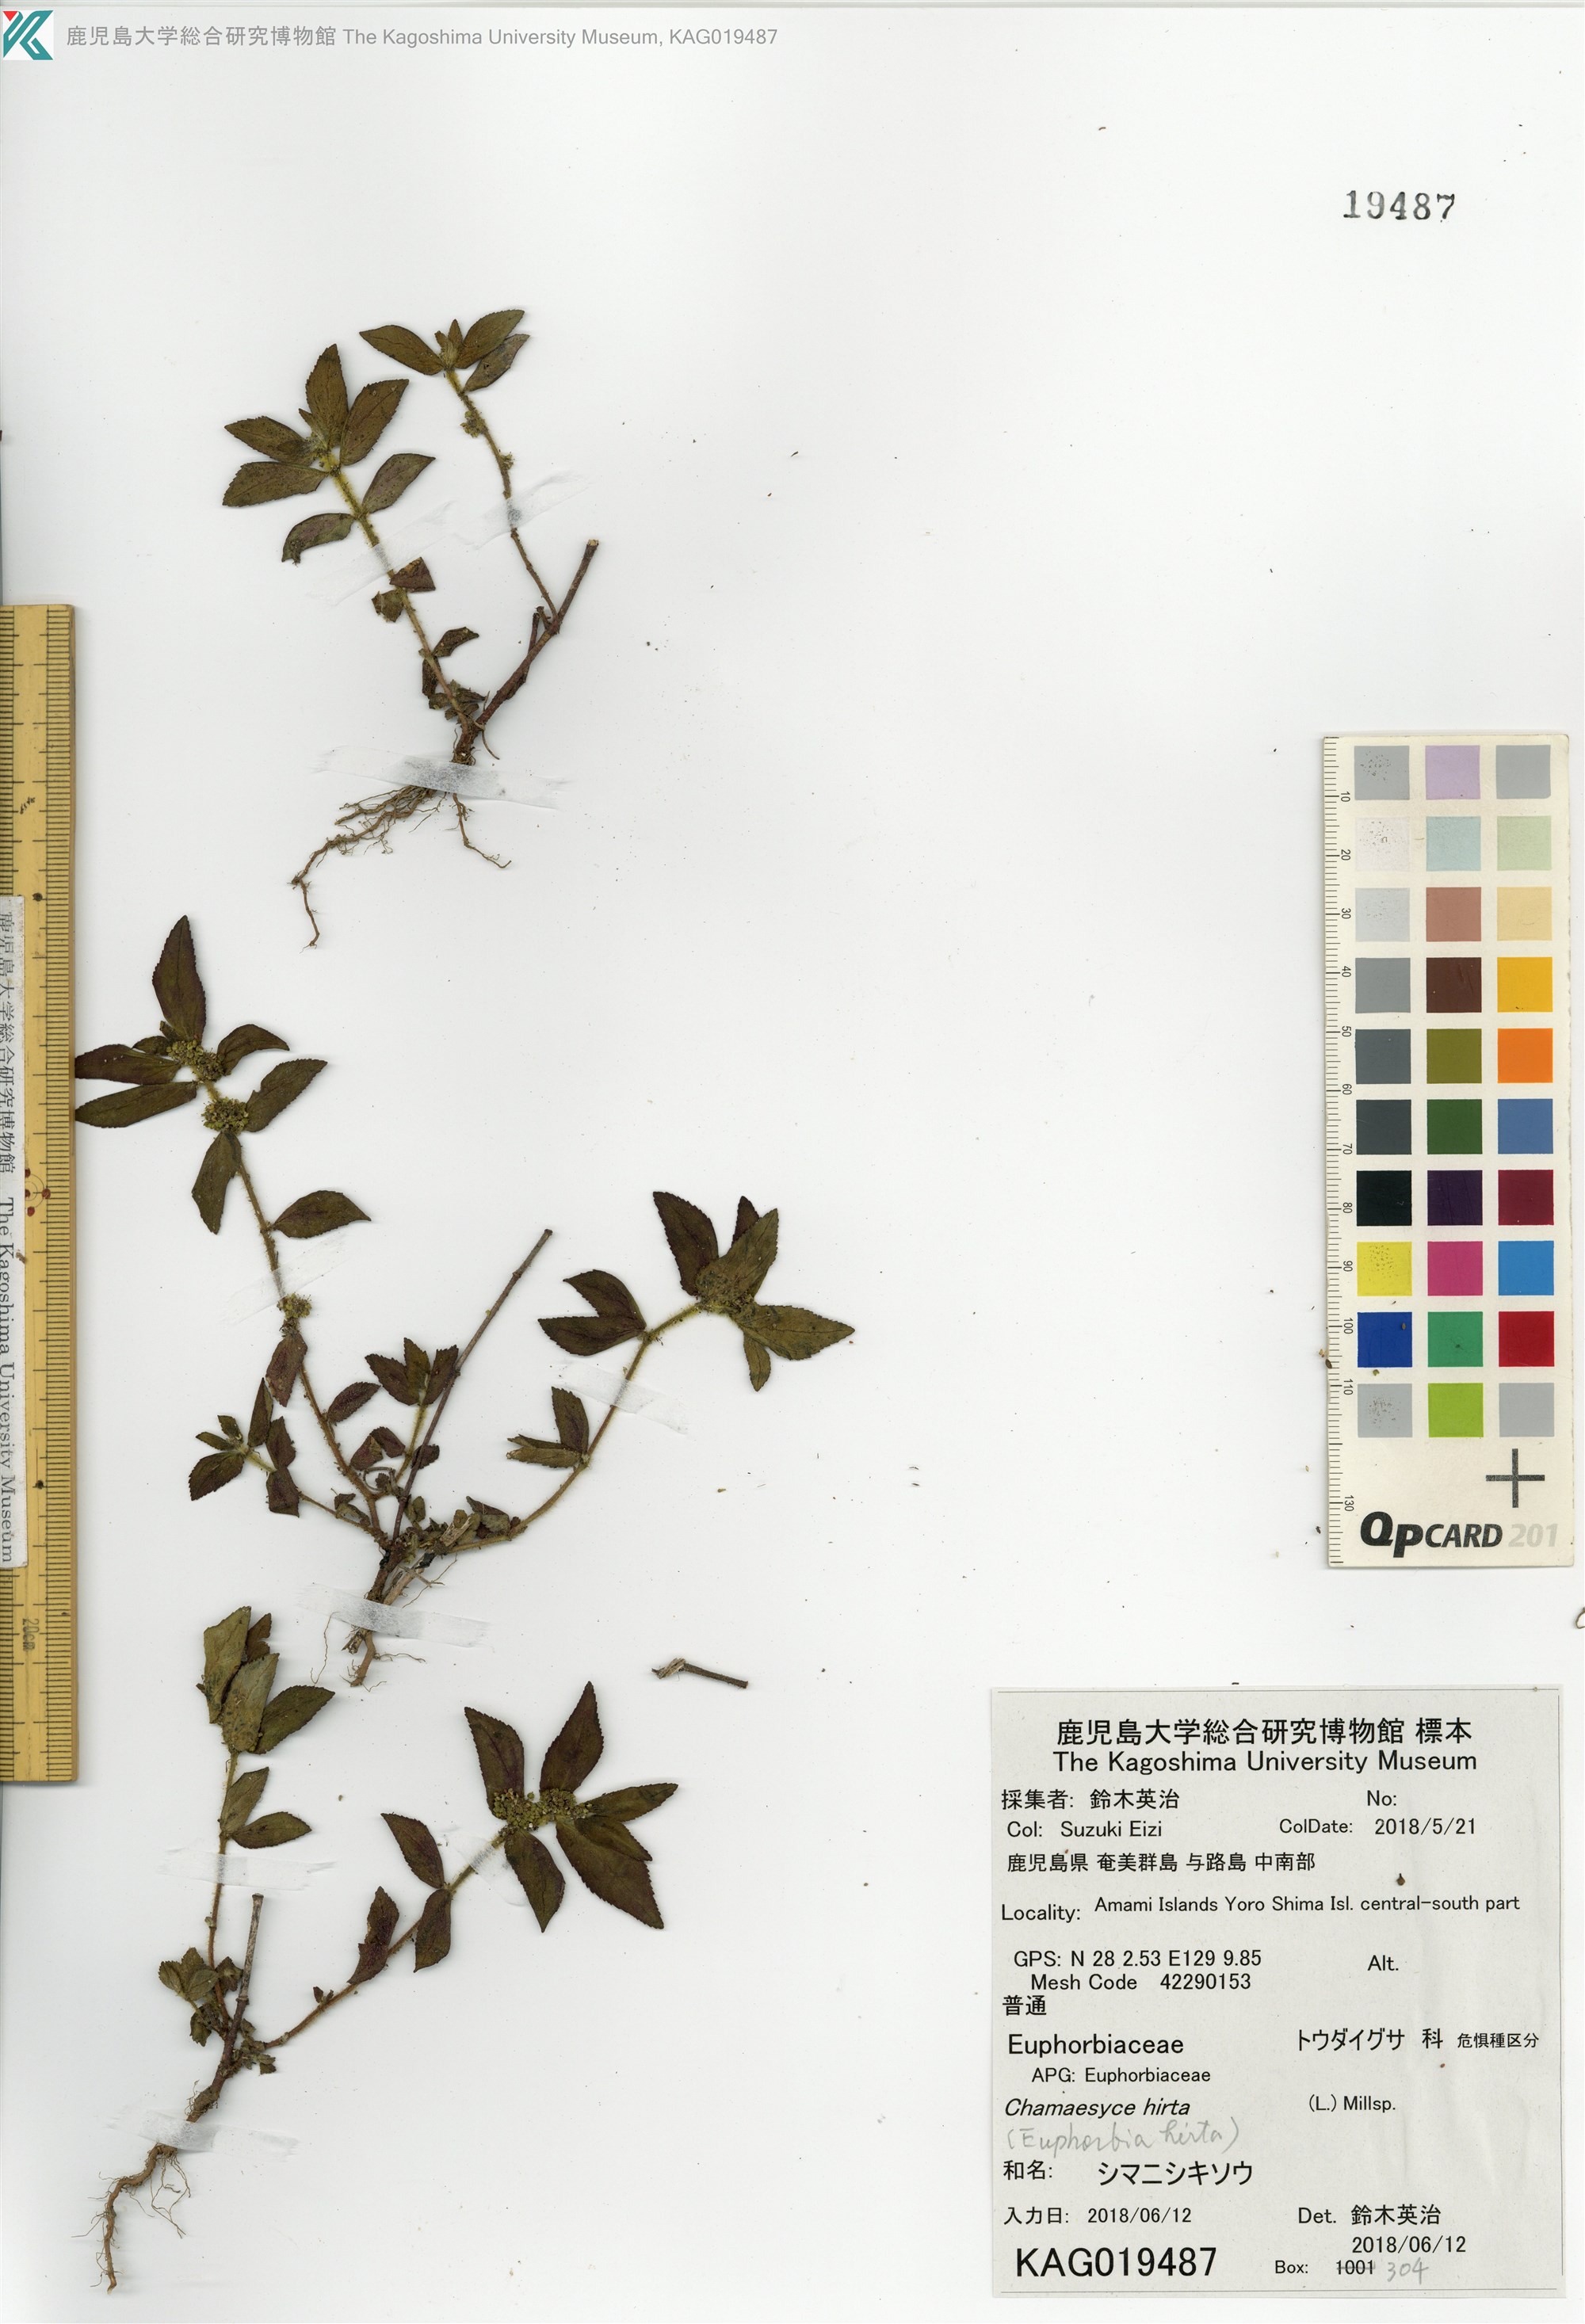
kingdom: Plantae
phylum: Tracheophyta
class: Magnoliopsida
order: Malpighiales
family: Euphorbiaceae
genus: Euphorbia
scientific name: Euphorbia hirta
